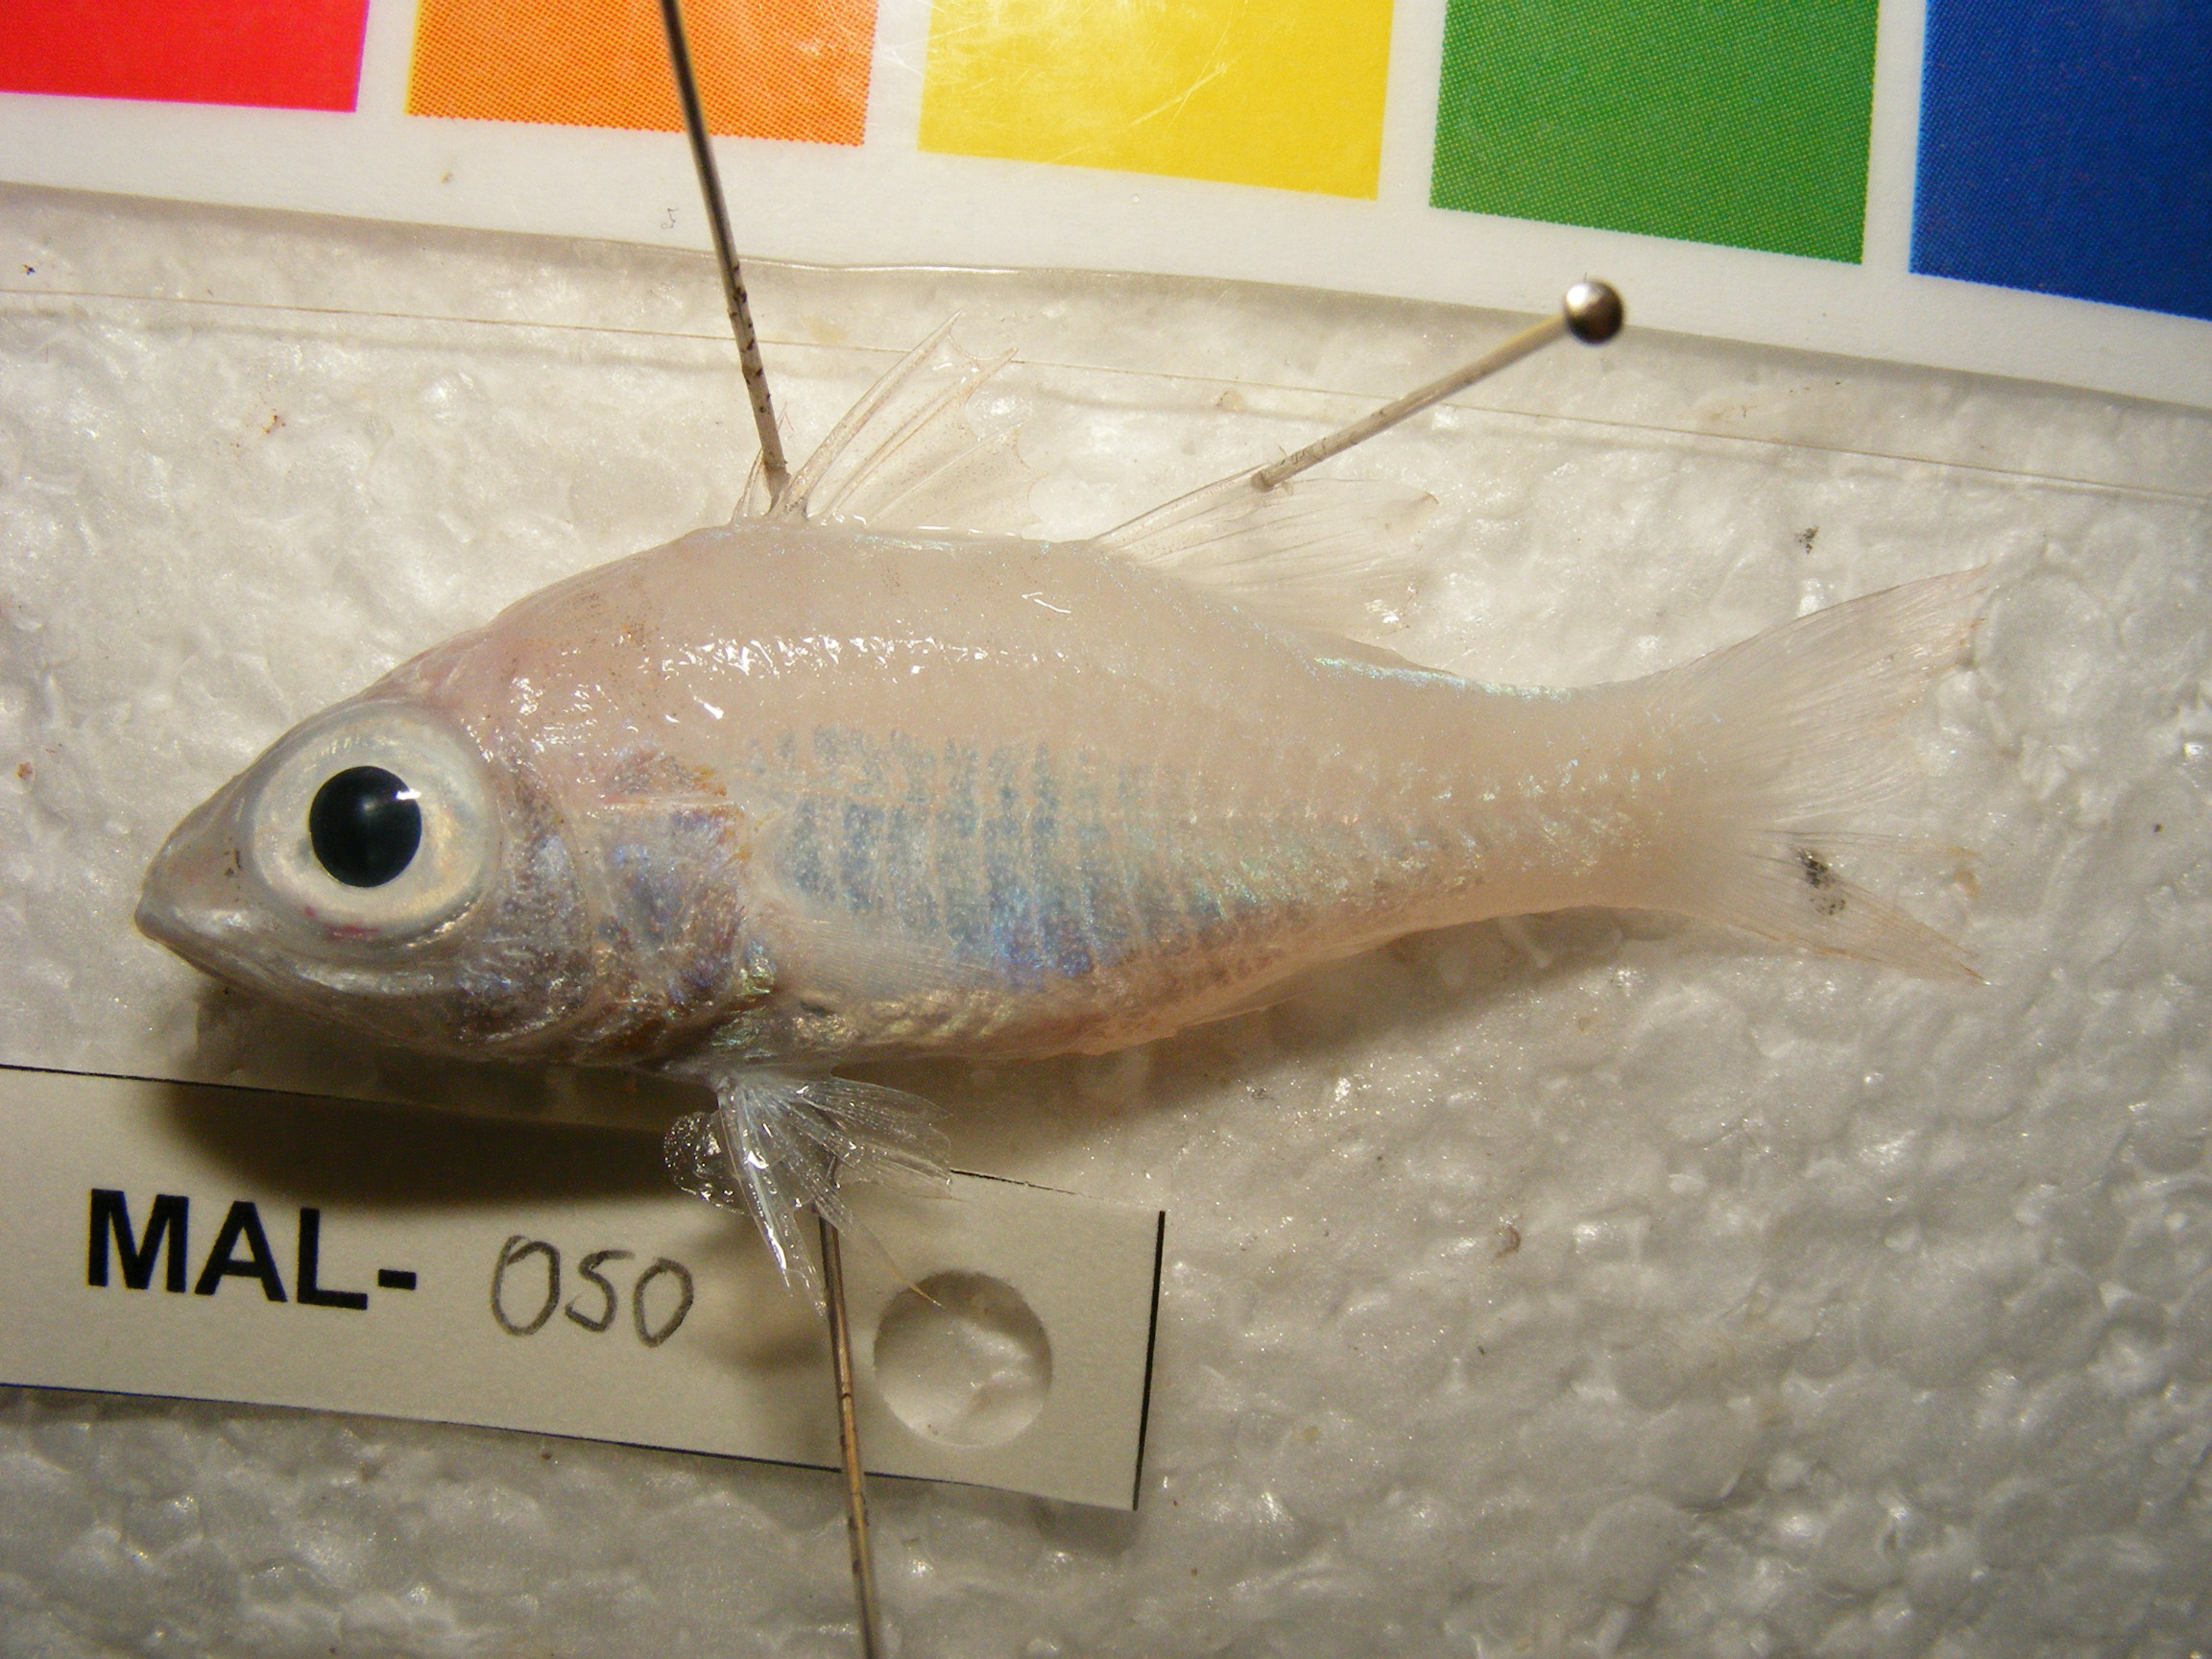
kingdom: Animalia
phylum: Chordata
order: Perciformes
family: Apogonidae
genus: Ostorhinchus
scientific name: Ostorhinchus cyanosoma
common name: Yellow-striped cardinalfish
